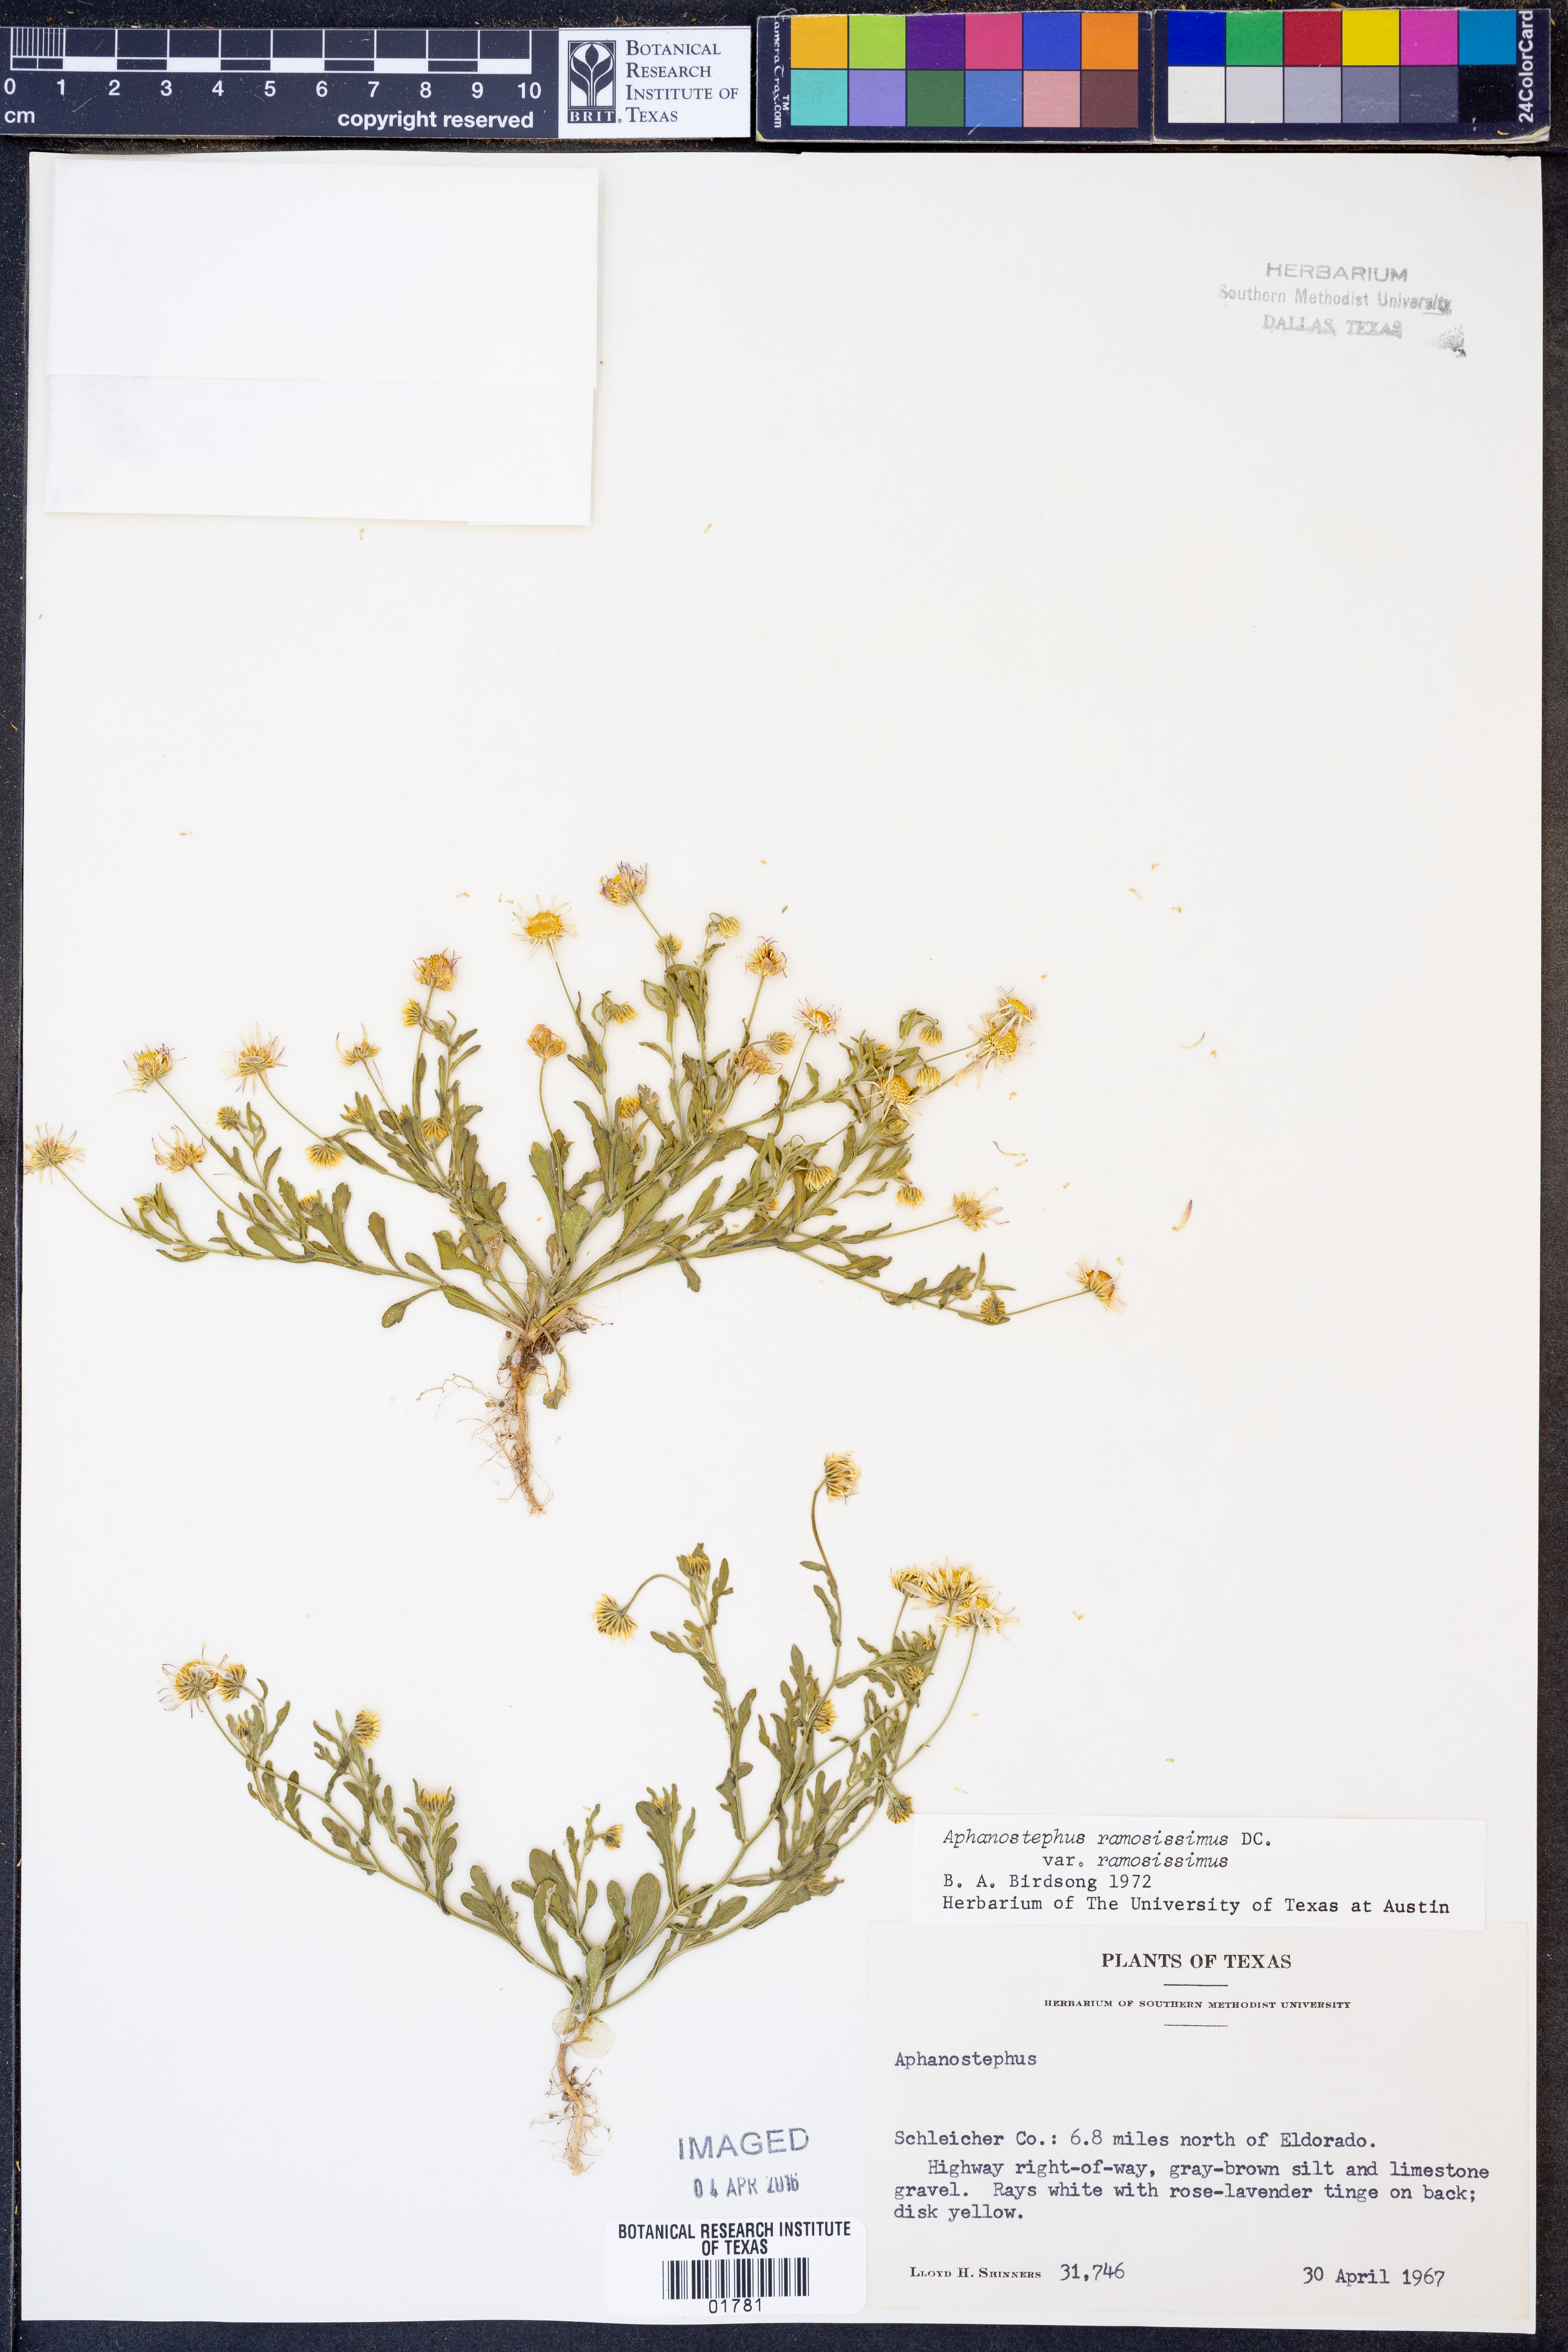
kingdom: Plantae
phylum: Tracheophyta
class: Magnoliopsida
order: Asterales
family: Asteraceae
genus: Aphanostephus
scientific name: Aphanostephus ramosissimus
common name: Plains lazy daisy
